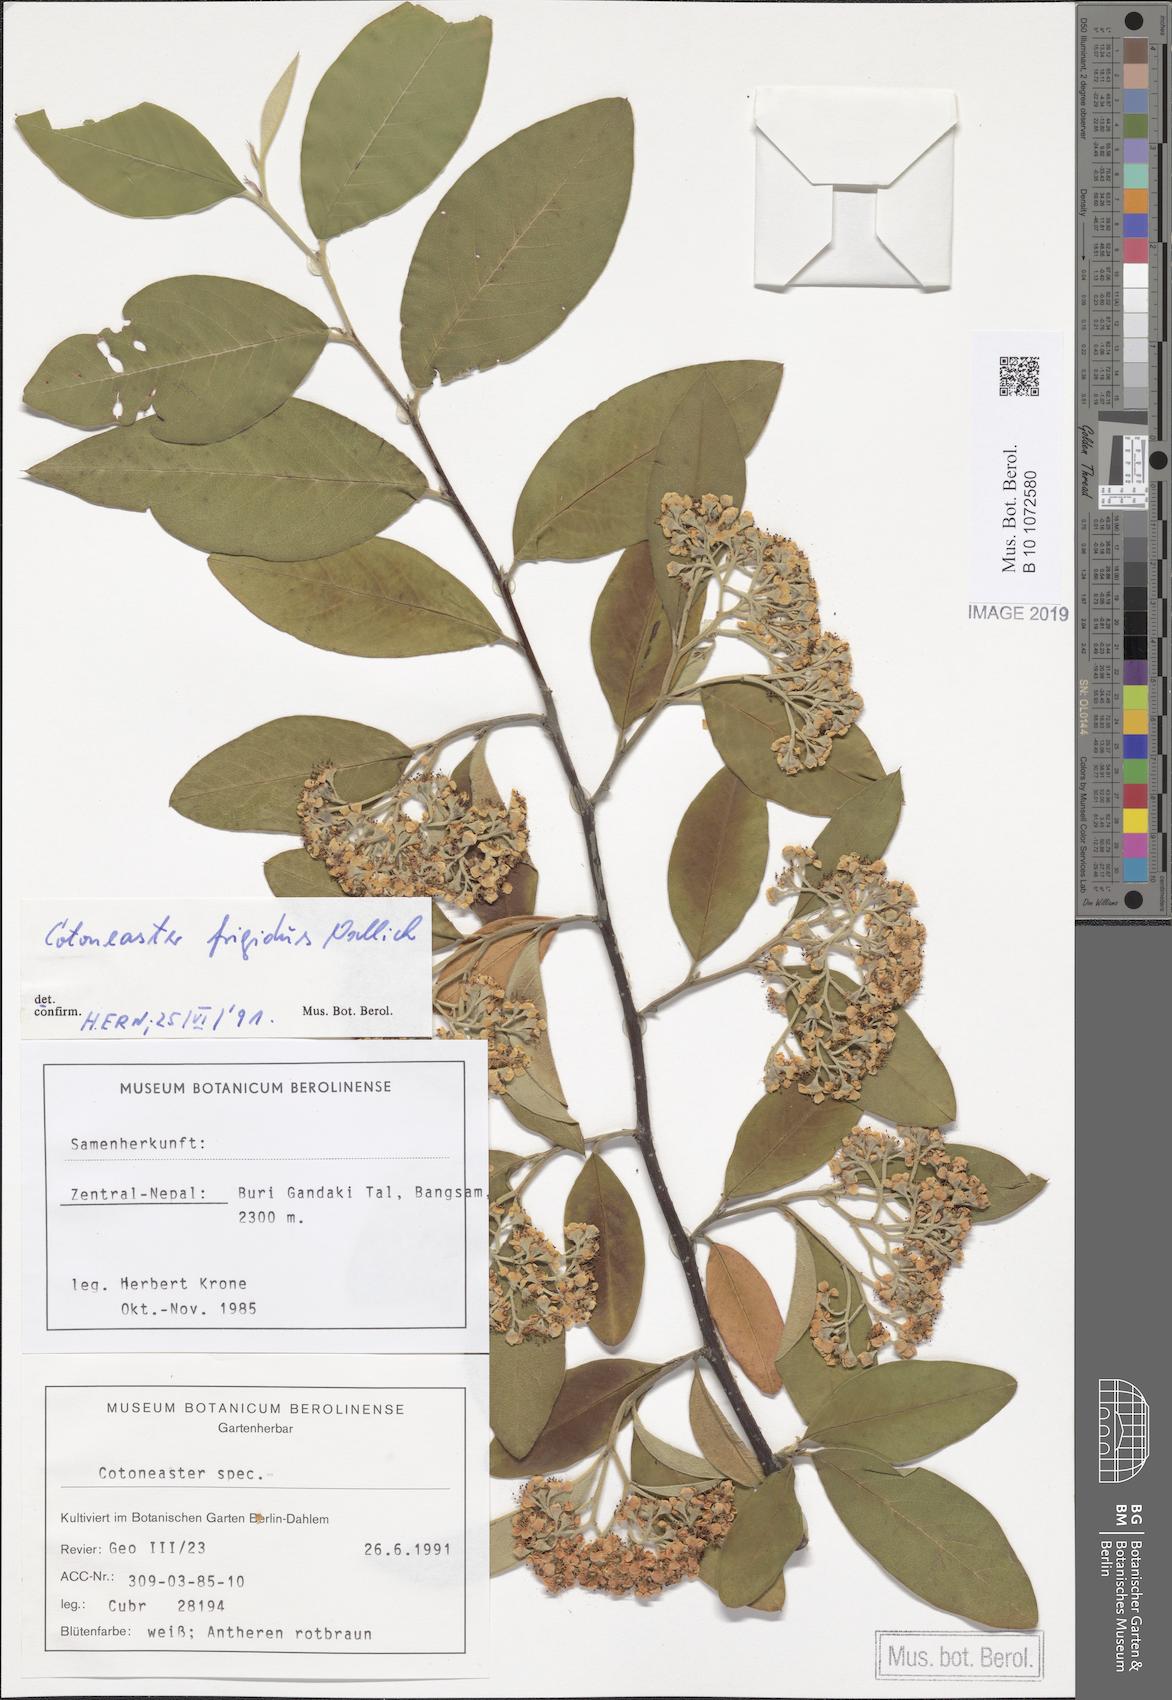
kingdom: Plantae
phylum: Tracheophyta
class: Magnoliopsida
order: Rosales
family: Rosaceae
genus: Cotoneaster
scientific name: Cotoneaster frigidus
